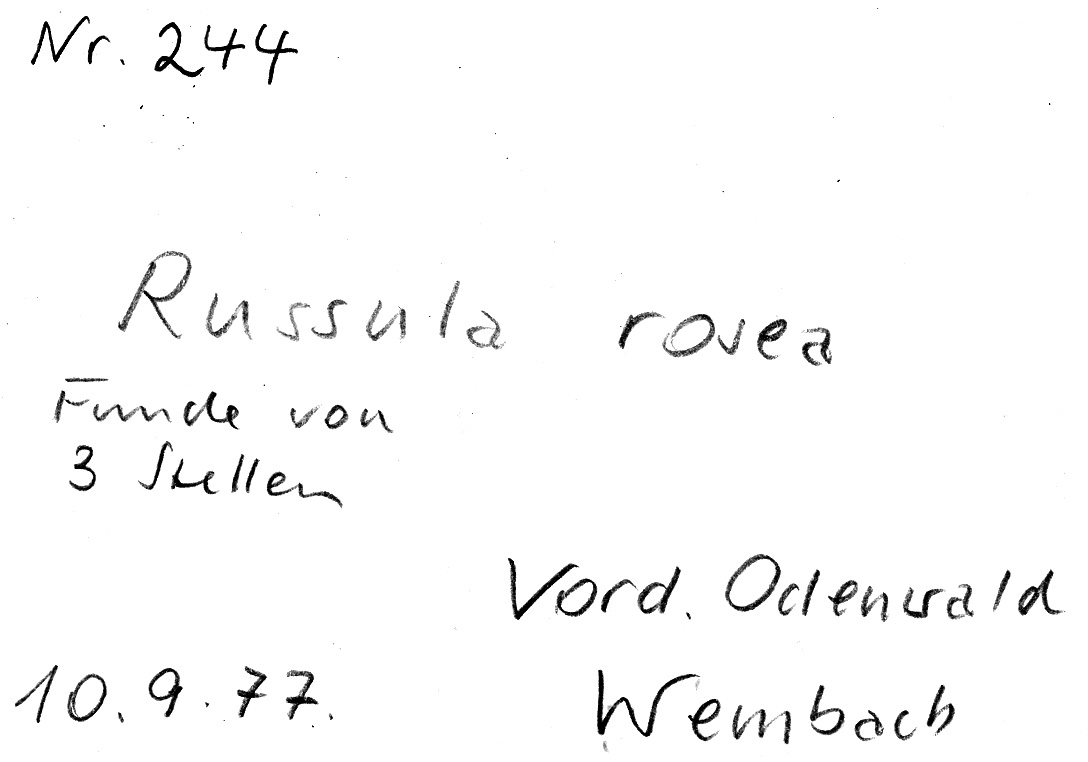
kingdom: Fungi
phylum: Basidiomycota
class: Agaricomycetes
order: Russulales
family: Russulaceae
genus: Russula
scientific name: Russula rosea
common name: Rosy brittlegill
